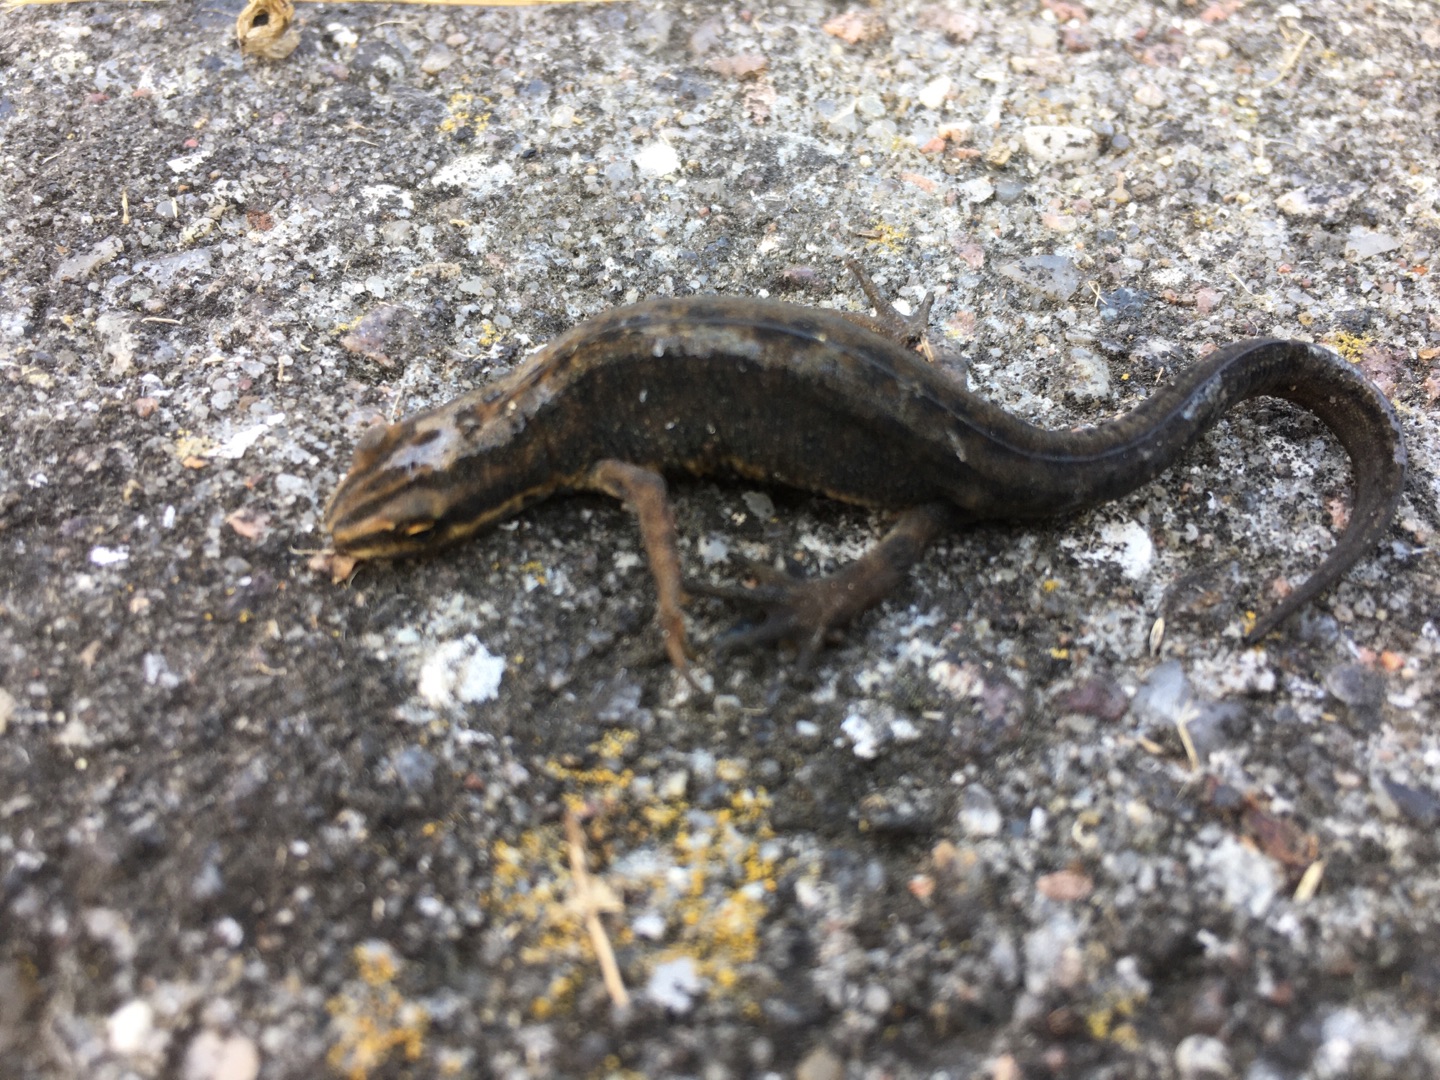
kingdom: Animalia
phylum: Chordata
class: Amphibia
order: Caudata
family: Salamandridae
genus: Lissotriton
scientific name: Lissotriton vulgaris
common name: Lille vandsalamander
